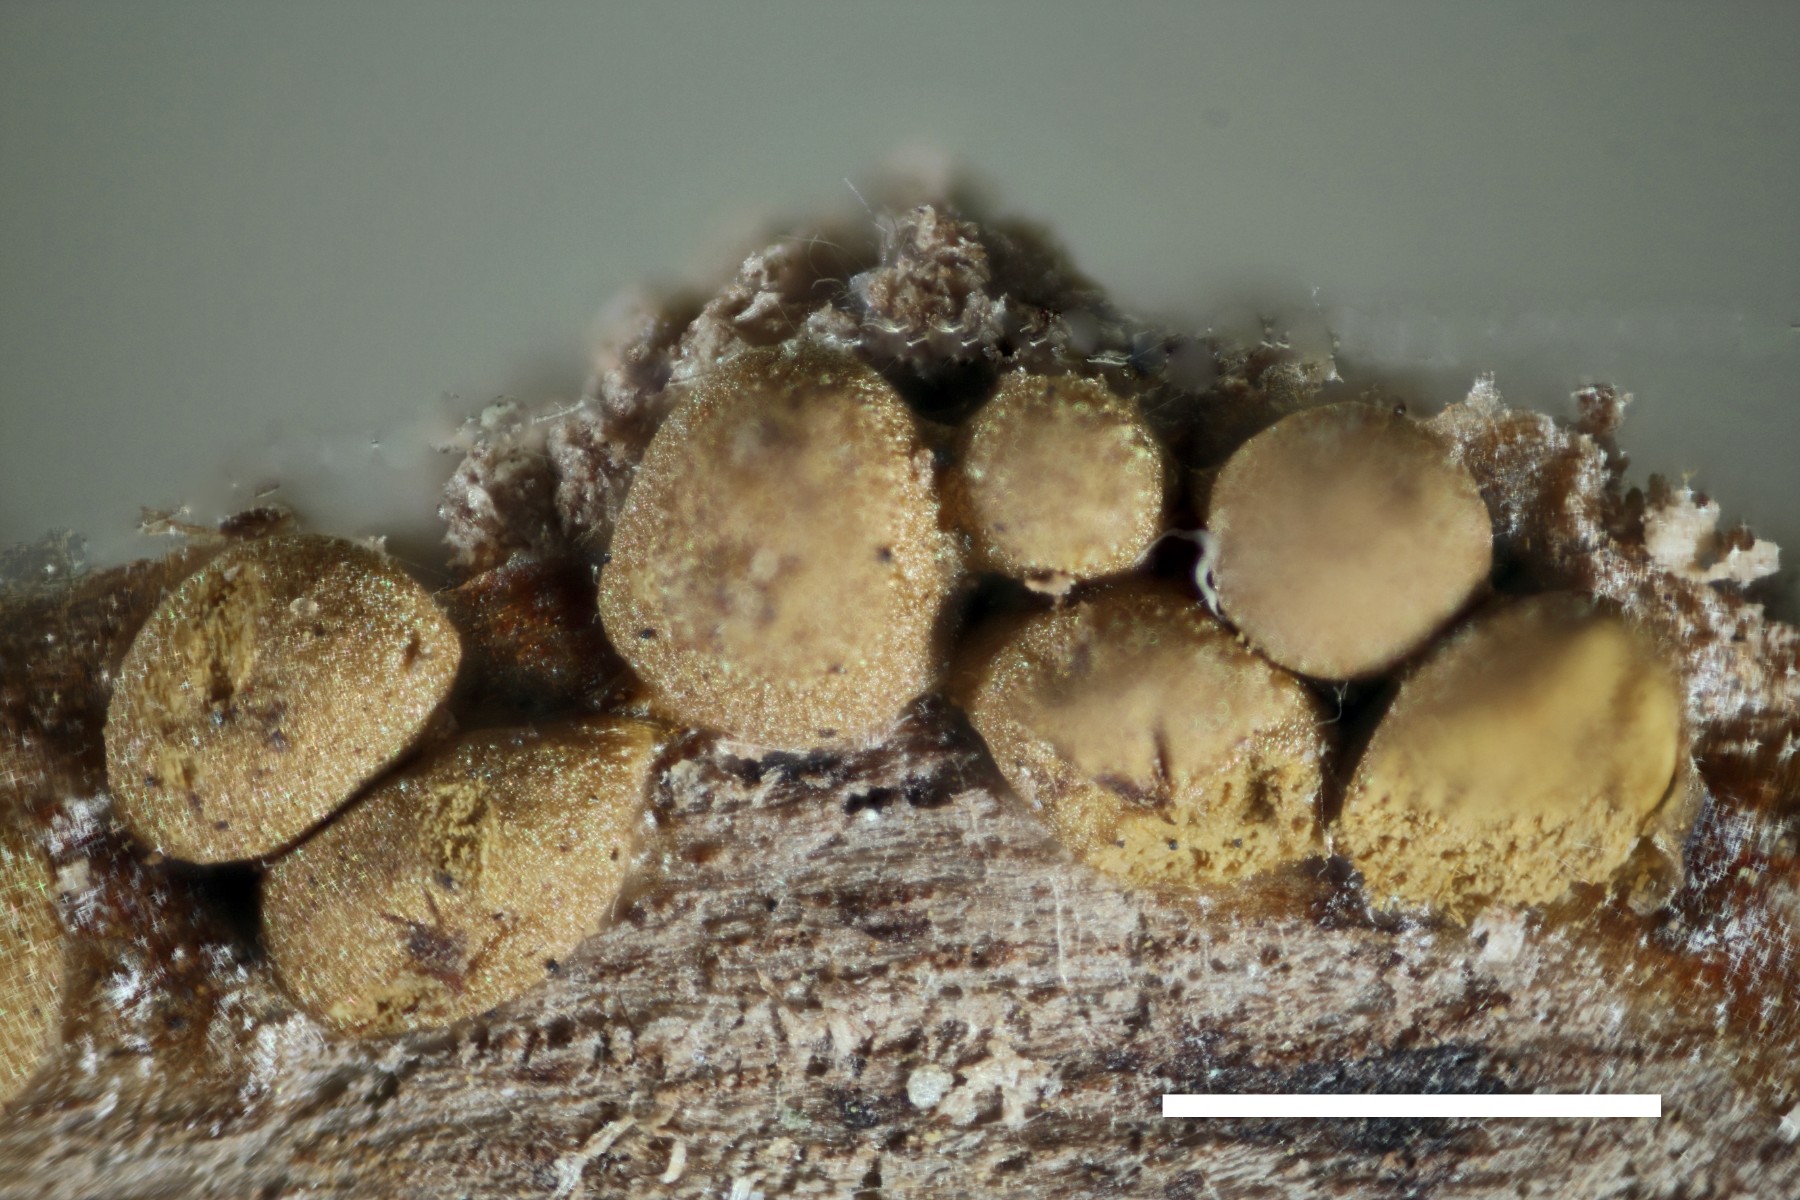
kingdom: Protozoa
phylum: Mycetozoa
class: Myxomycetes
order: Trichiales
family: Trichiaceae
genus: Trichia
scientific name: Trichia varia
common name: foranderlig hårbold
